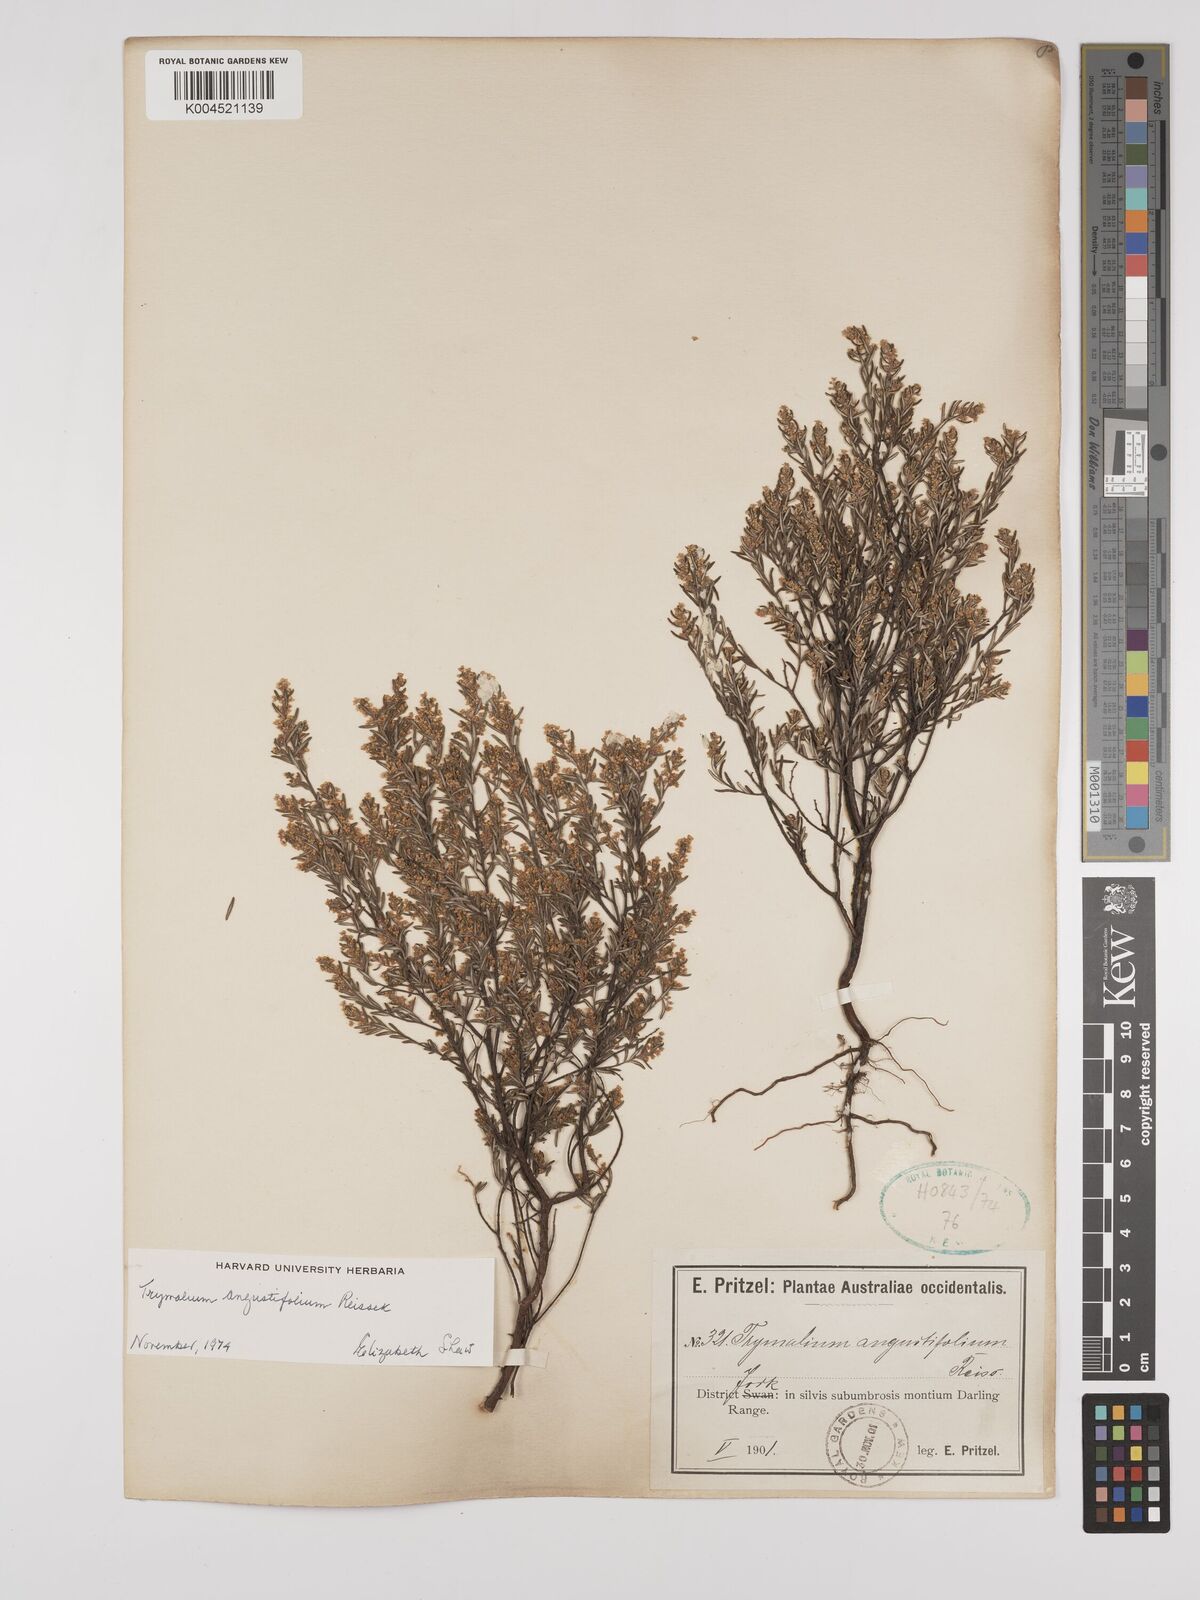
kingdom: Plantae
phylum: Tracheophyta
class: Magnoliopsida
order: Rosales
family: Rhamnaceae
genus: Trymalium
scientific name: Trymalium angustifolium
